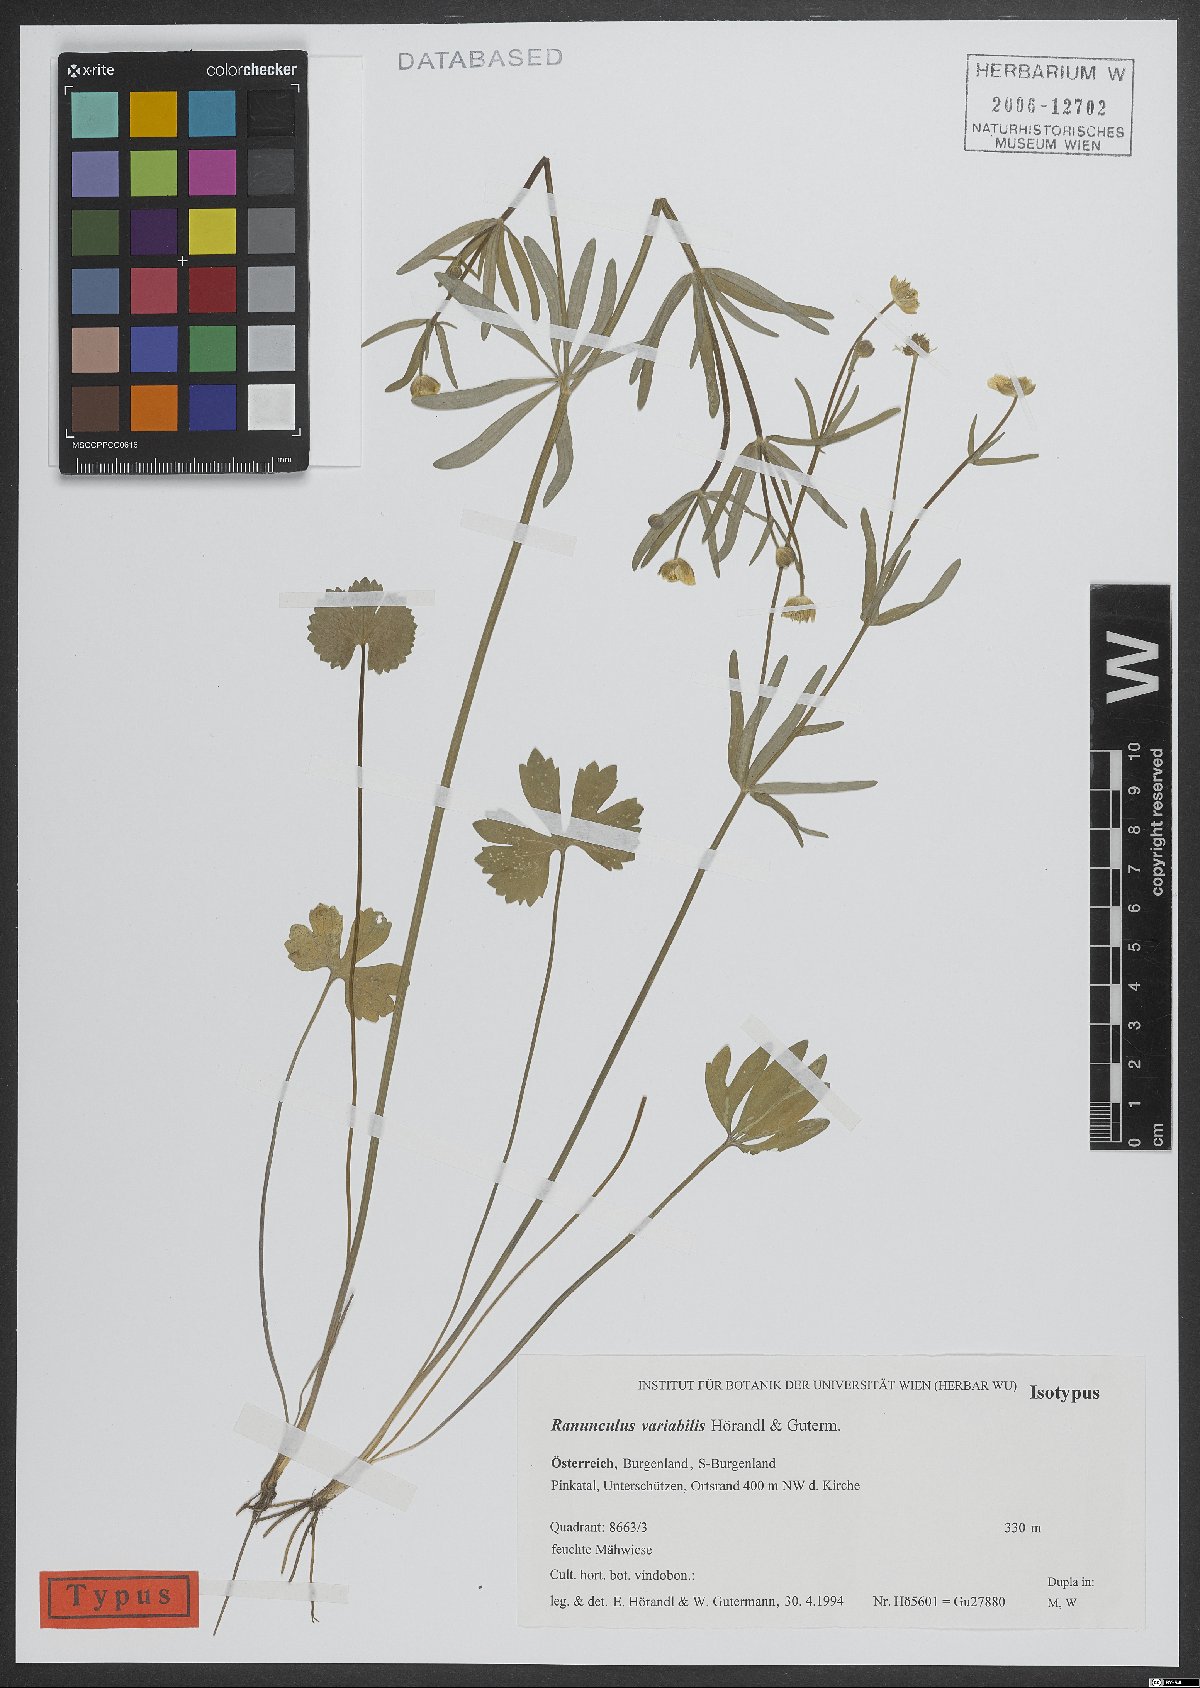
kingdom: Plantae
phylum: Tracheophyta
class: Magnoliopsida
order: Ranunculales
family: Ranunculaceae
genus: Ranunculus
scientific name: Ranunculus variabilis
